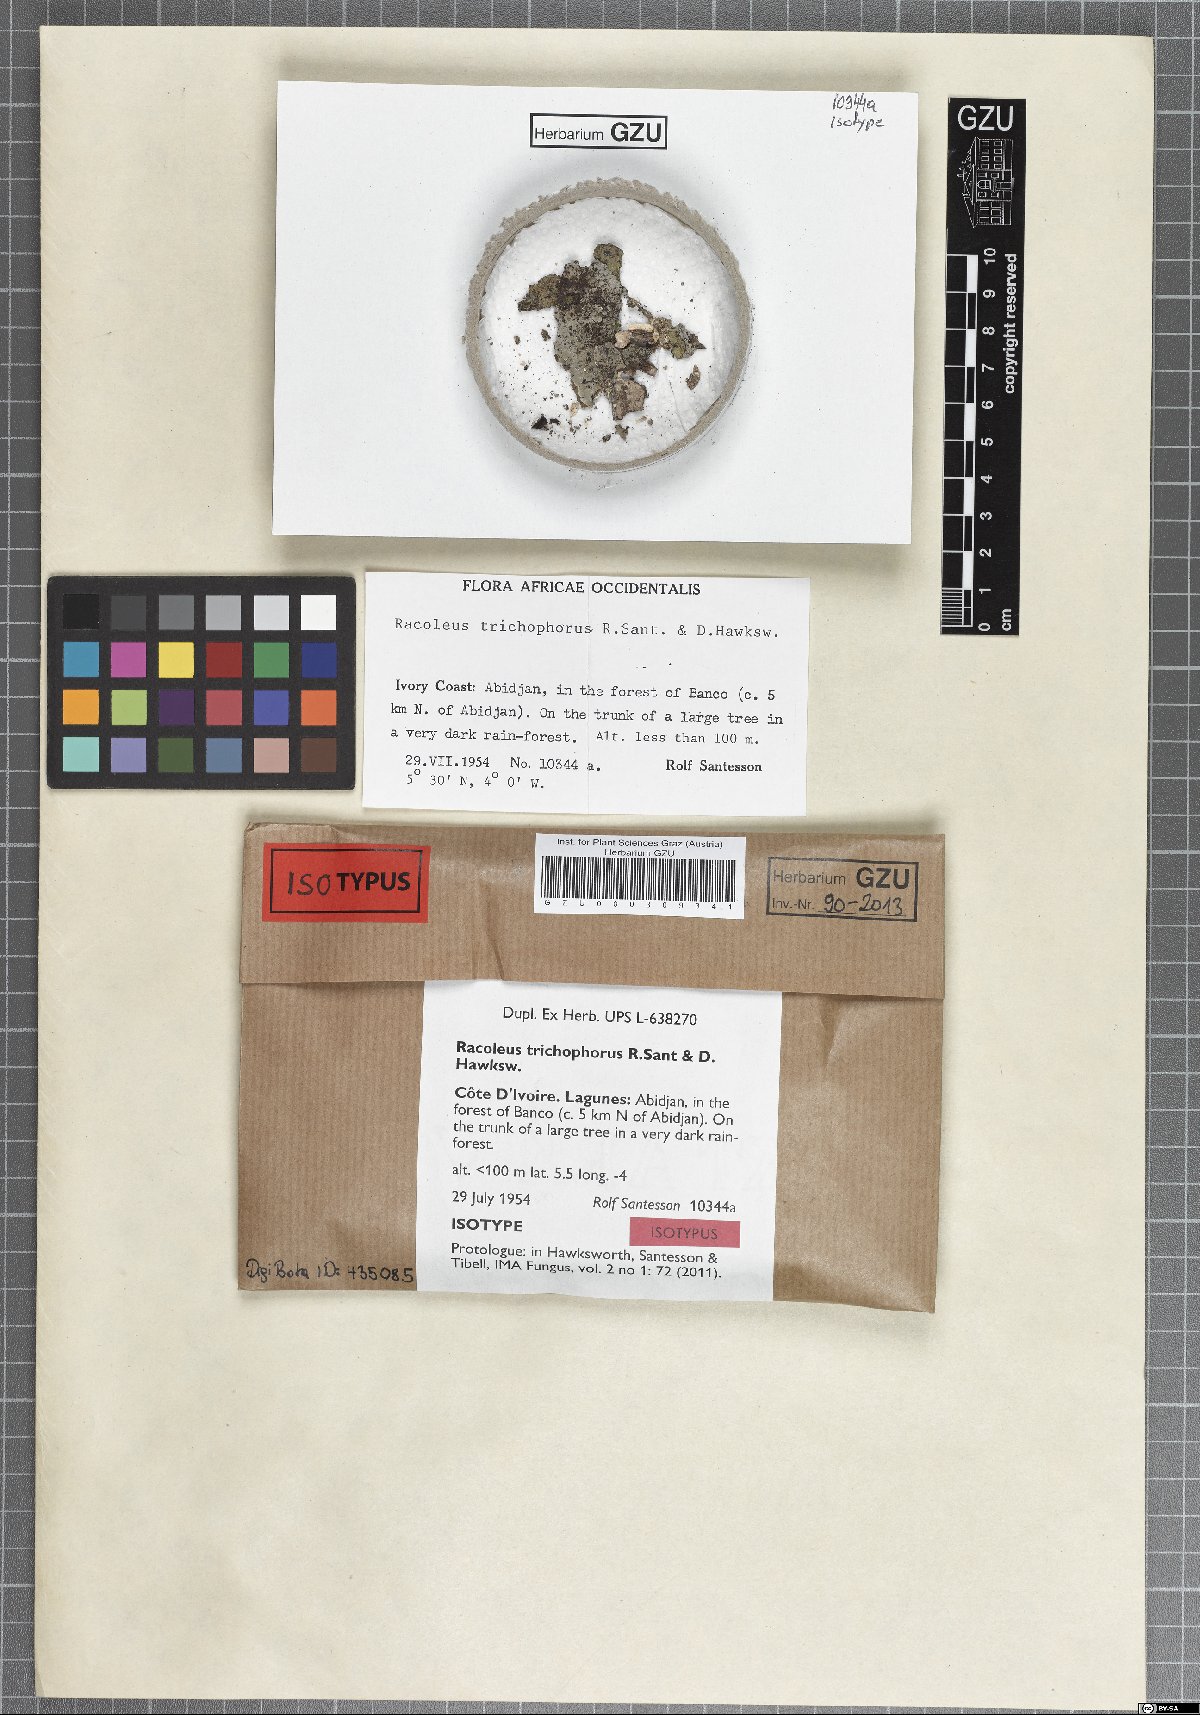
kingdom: Fungi
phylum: Ascomycota
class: Dothideomycetes
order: Capnodiales
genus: Racoleus
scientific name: Racoleus trichophorus
